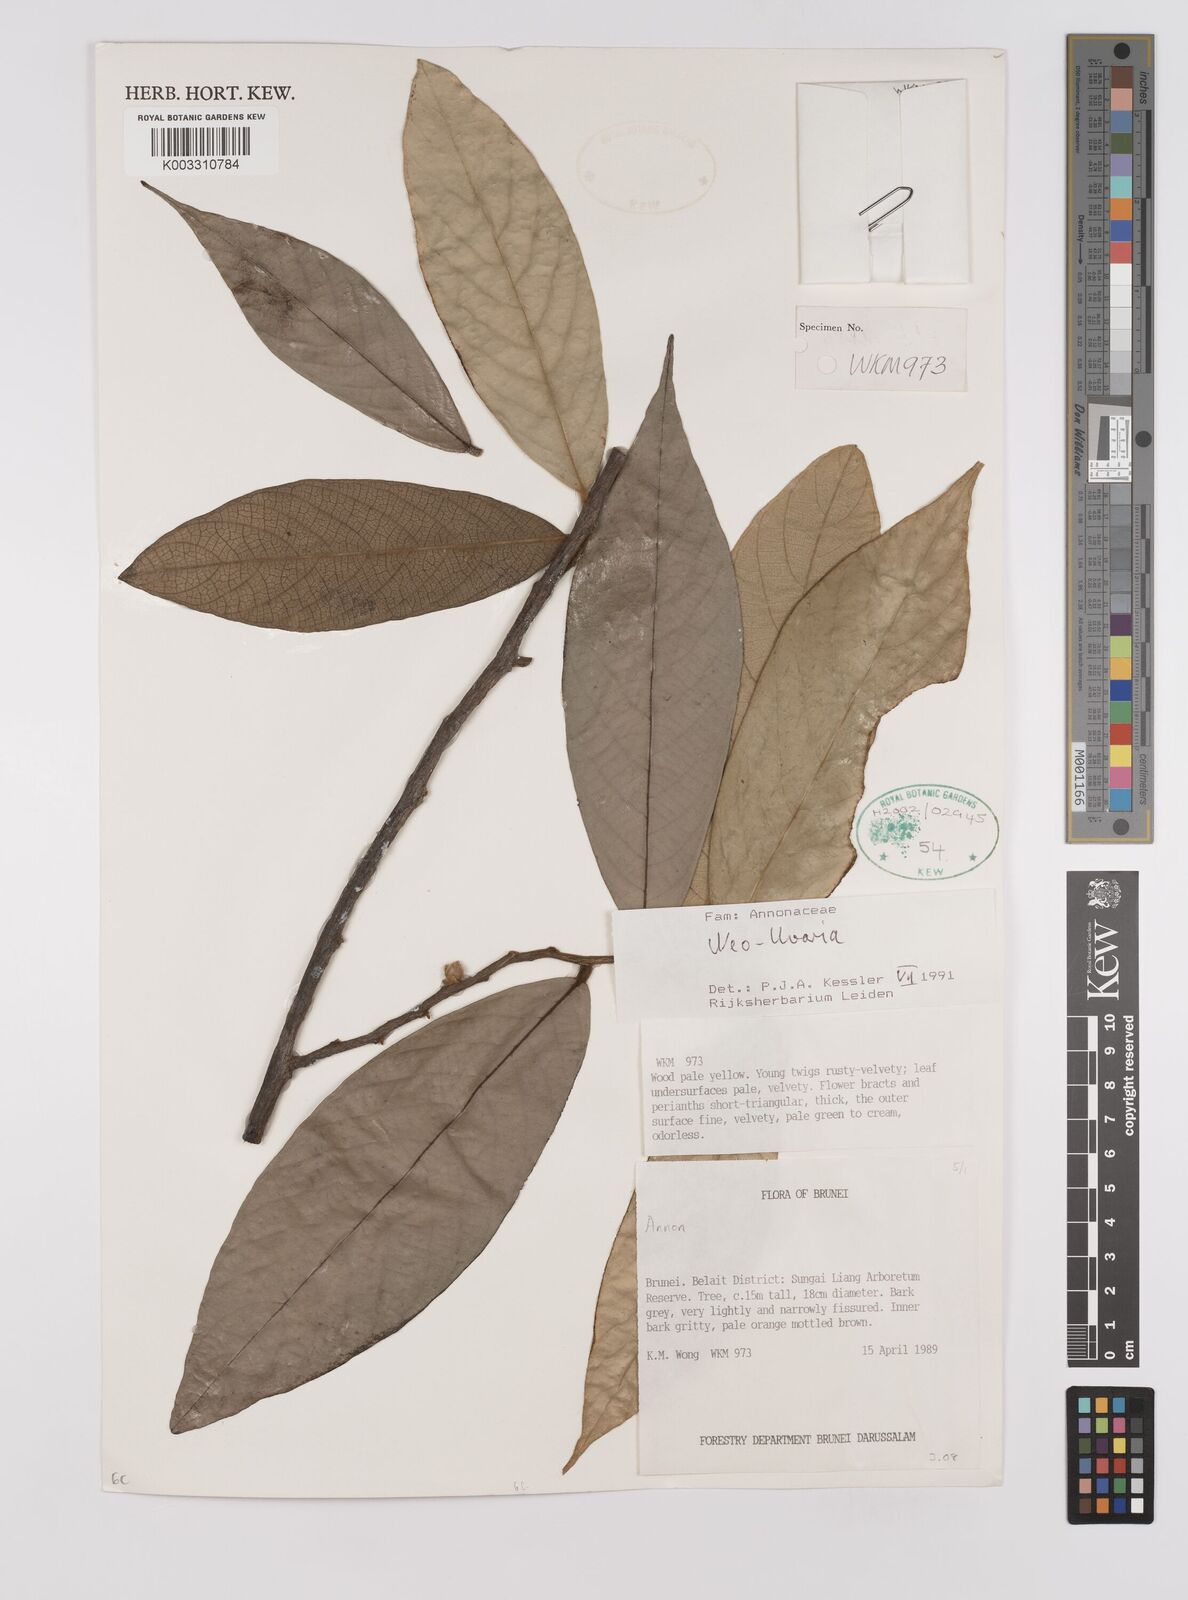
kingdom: Plantae
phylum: Tracheophyta
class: Magnoliopsida
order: Magnoliales
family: Annonaceae
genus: Neo-uvaria
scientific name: Neo-uvaria
